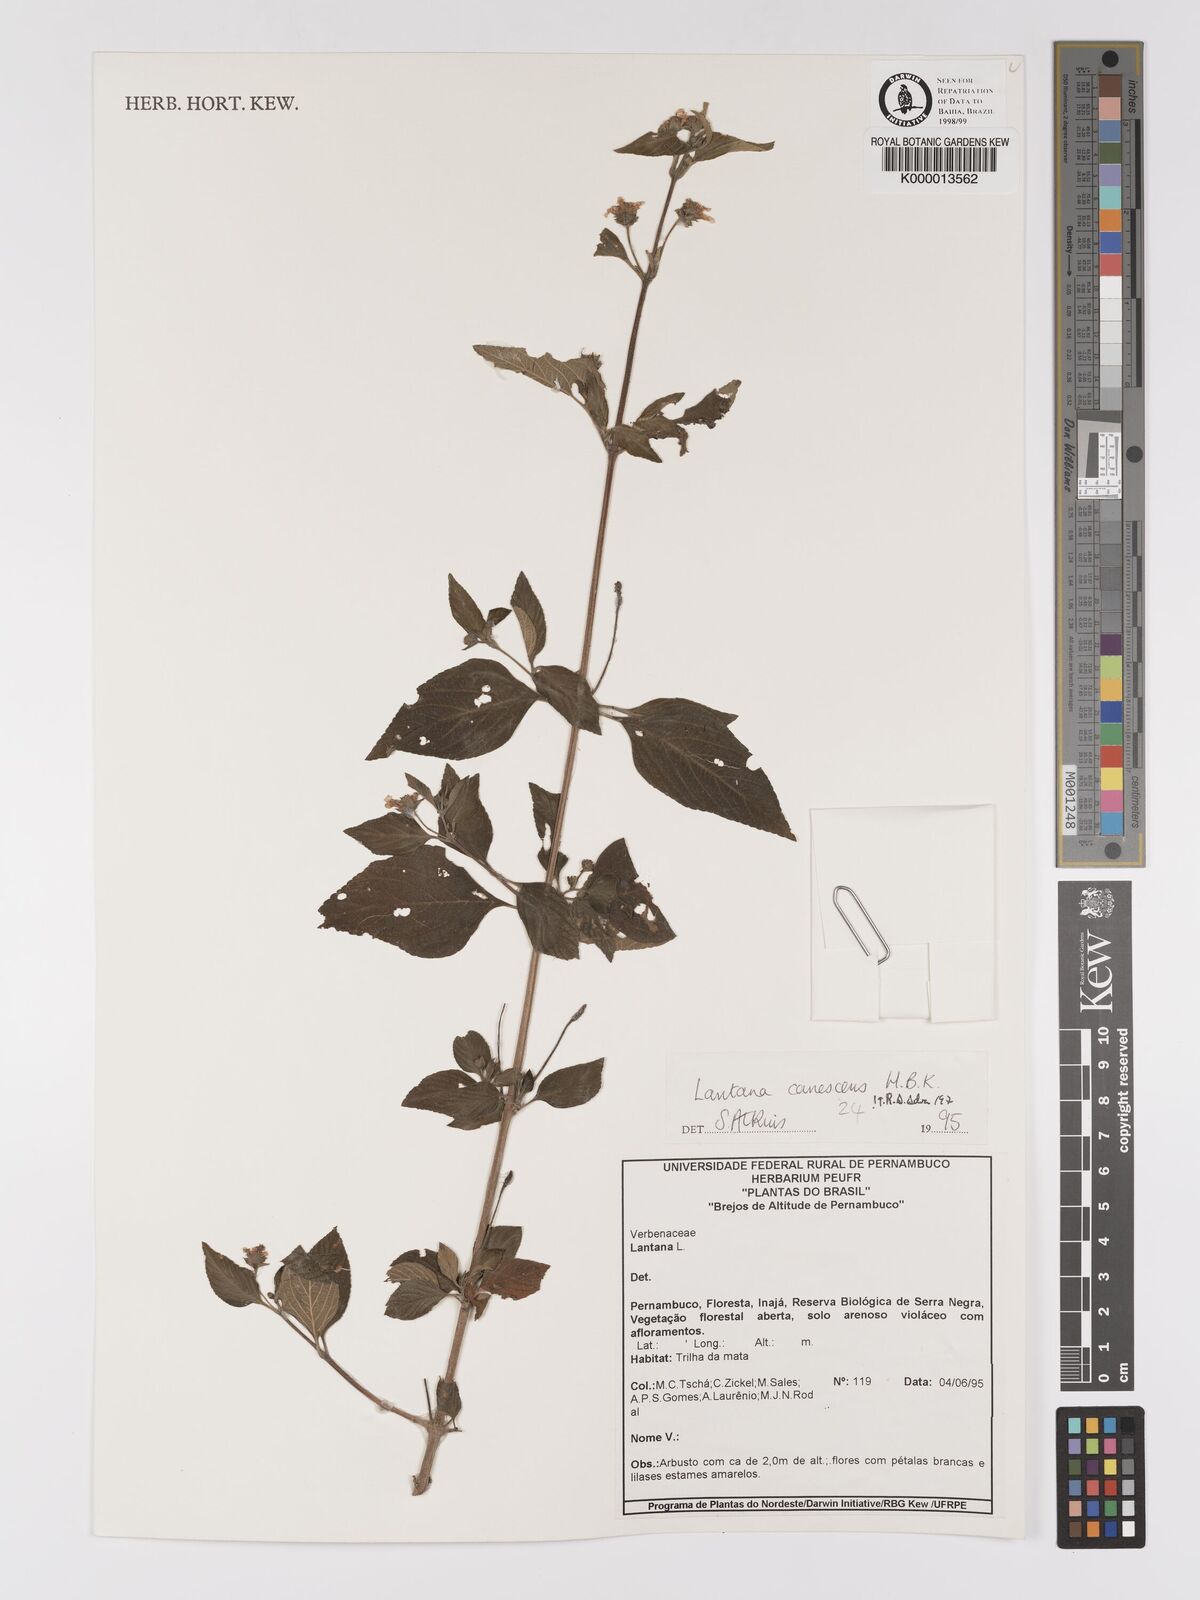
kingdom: Plantae
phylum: Tracheophyta
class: Magnoliopsida
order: Lamiales
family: Verbenaceae
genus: Lantana
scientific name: Lantana canescens
